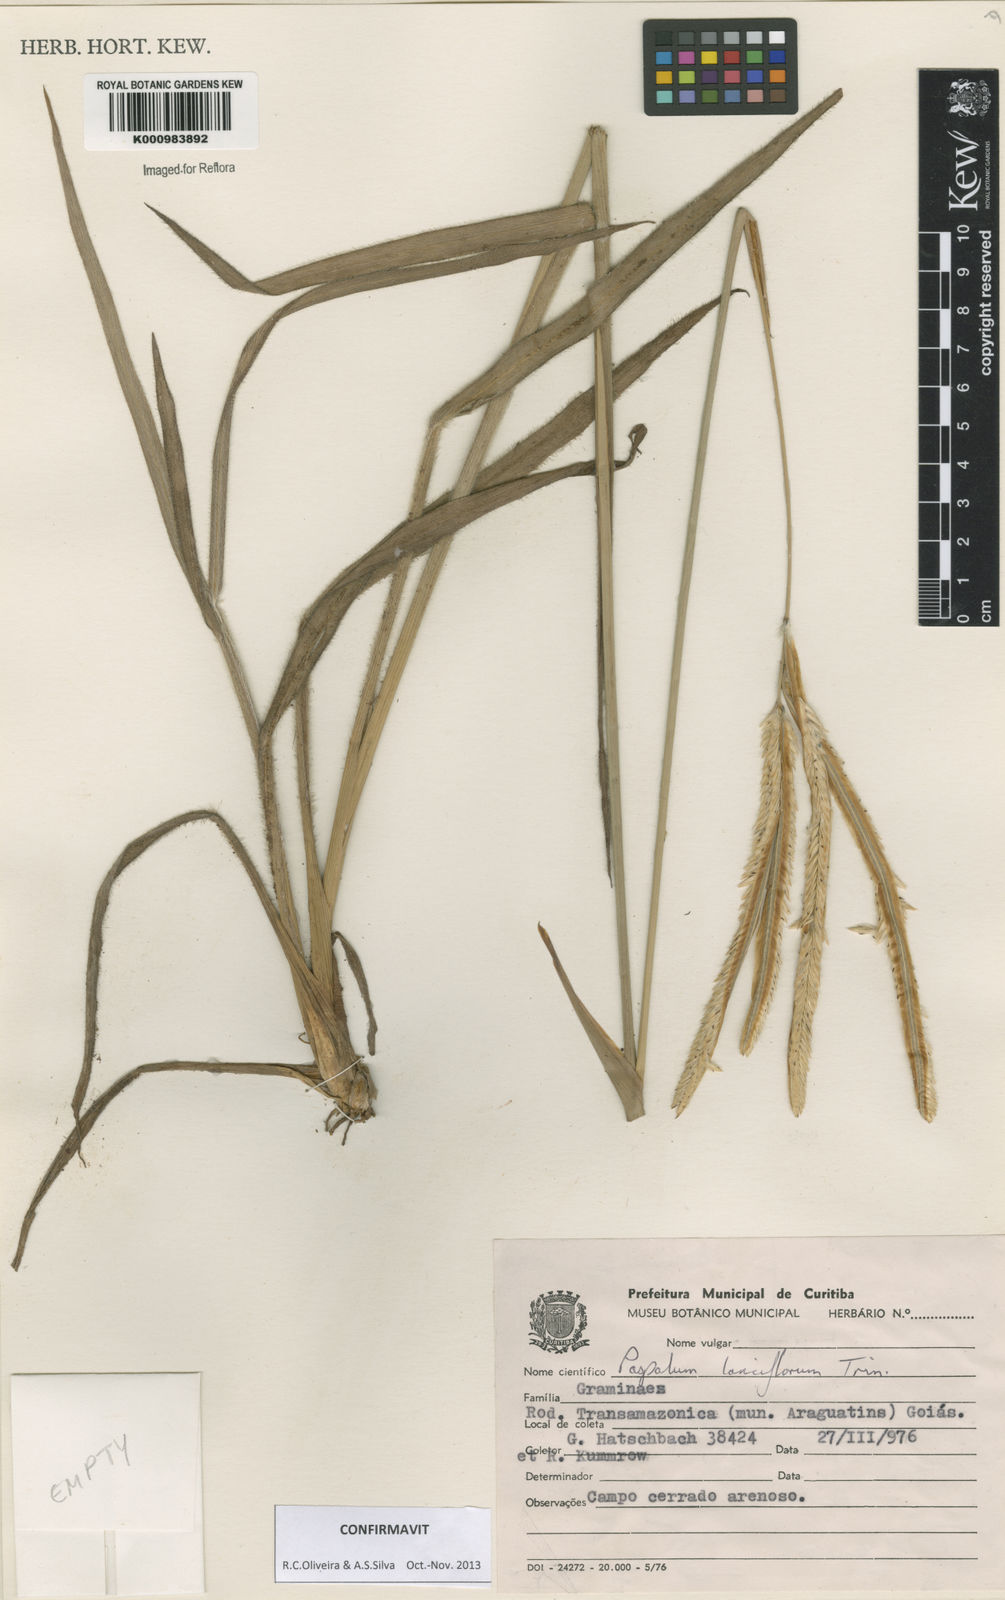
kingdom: Plantae
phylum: Tracheophyta
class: Liliopsida
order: Poales
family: Poaceae
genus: Paspalum
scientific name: Paspalum
